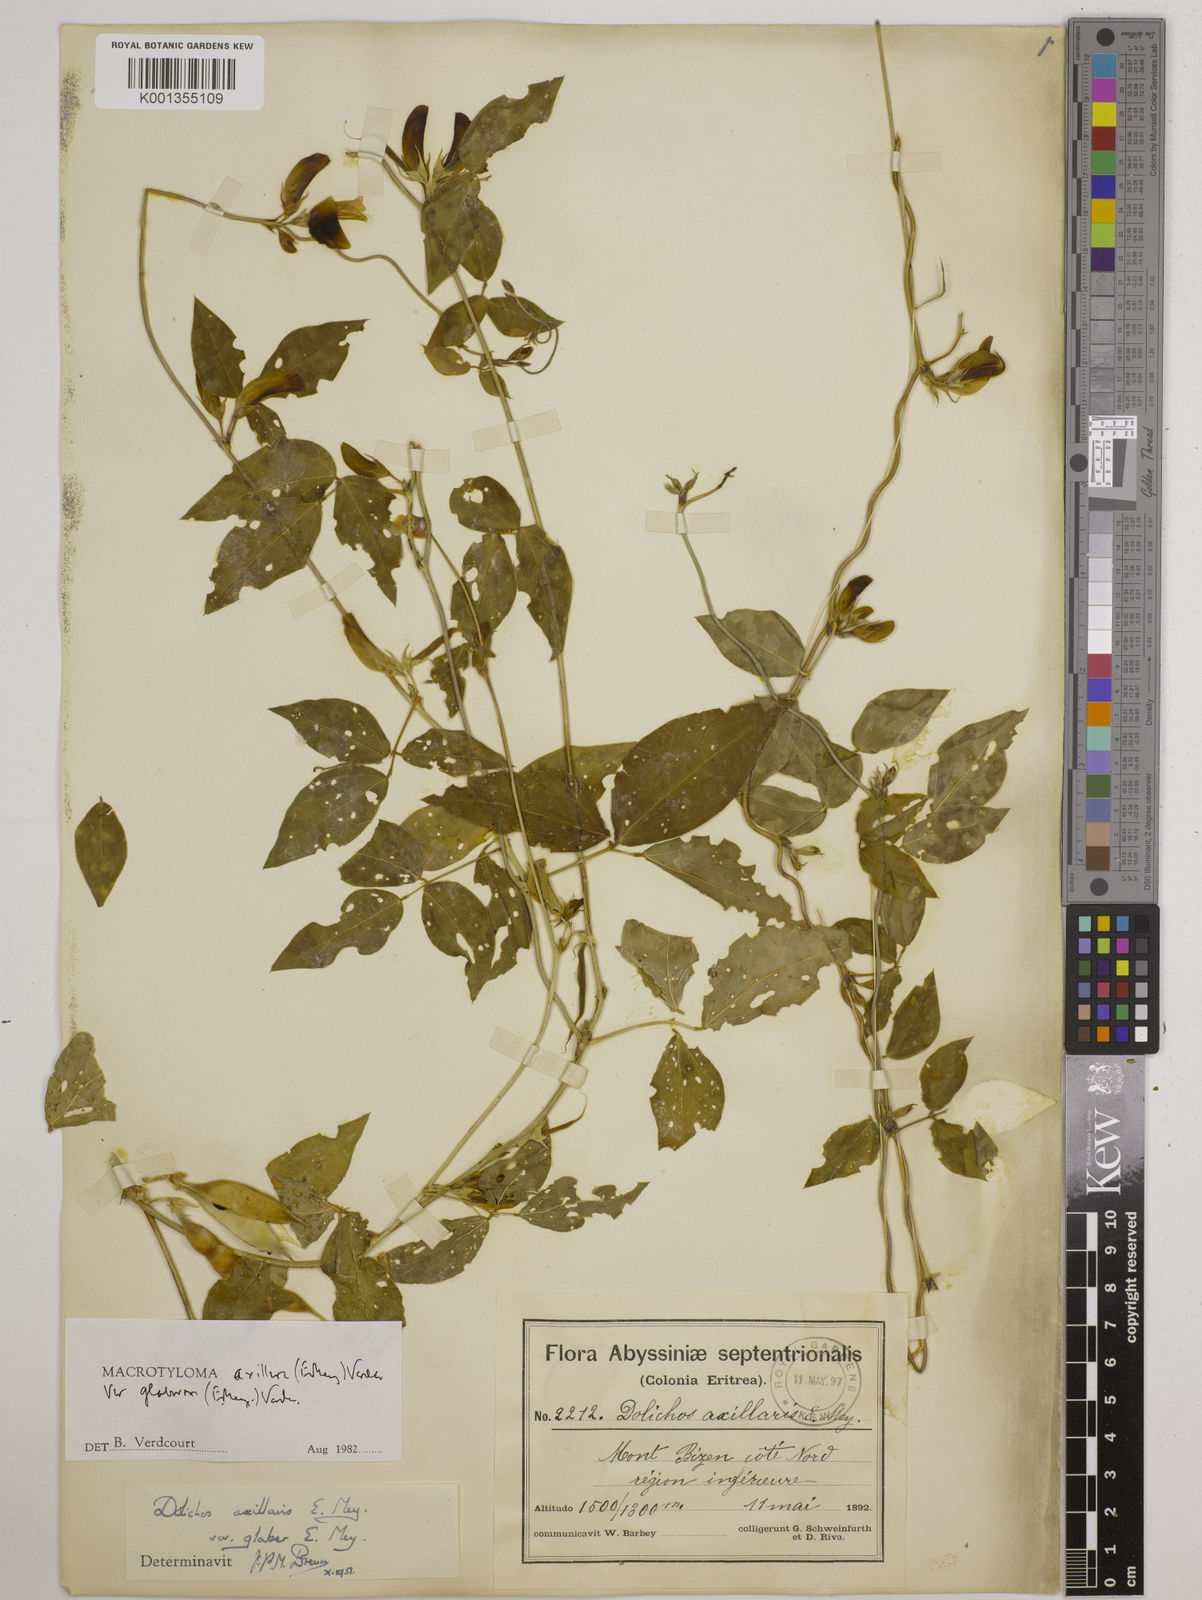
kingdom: Plantae
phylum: Tracheophyta
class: Magnoliopsida
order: Fabales
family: Fabaceae
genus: Macrotyloma
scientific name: Macrotyloma
